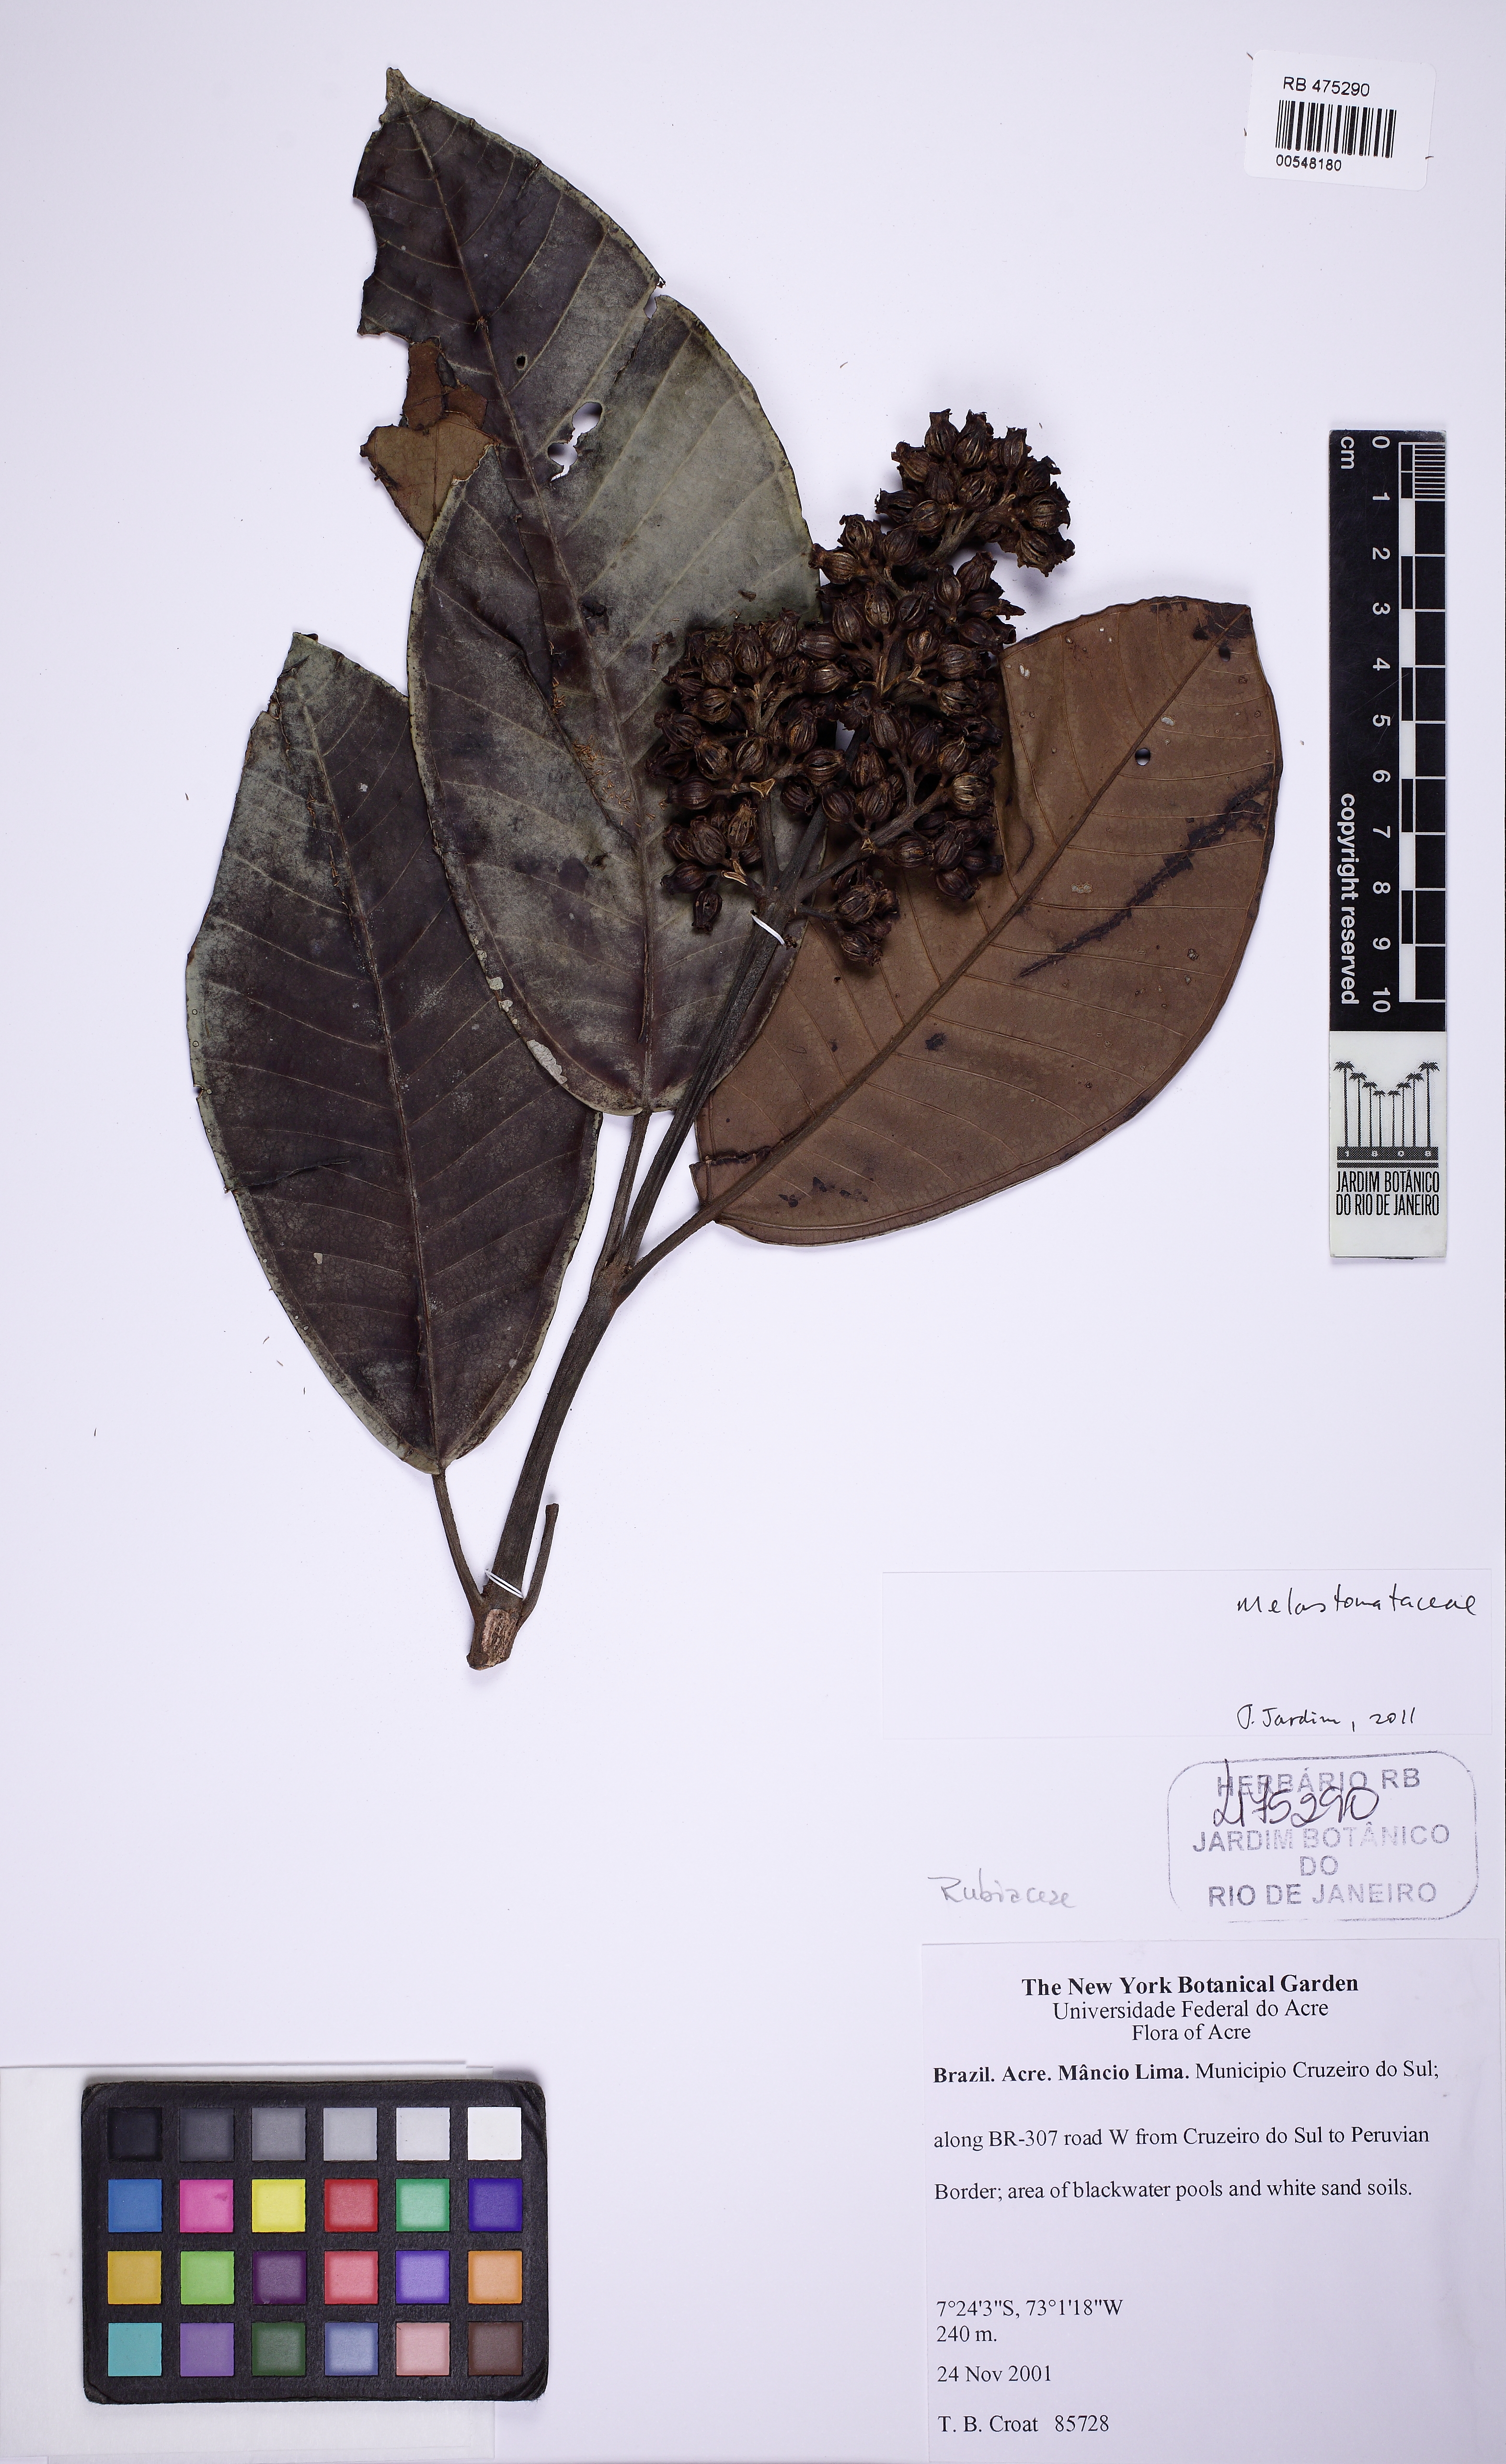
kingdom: Plantae
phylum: Tracheophyta
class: Magnoliopsida
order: Myrtales
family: Melastomataceae
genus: Graffenrieda
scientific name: Graffenrieda limbata
